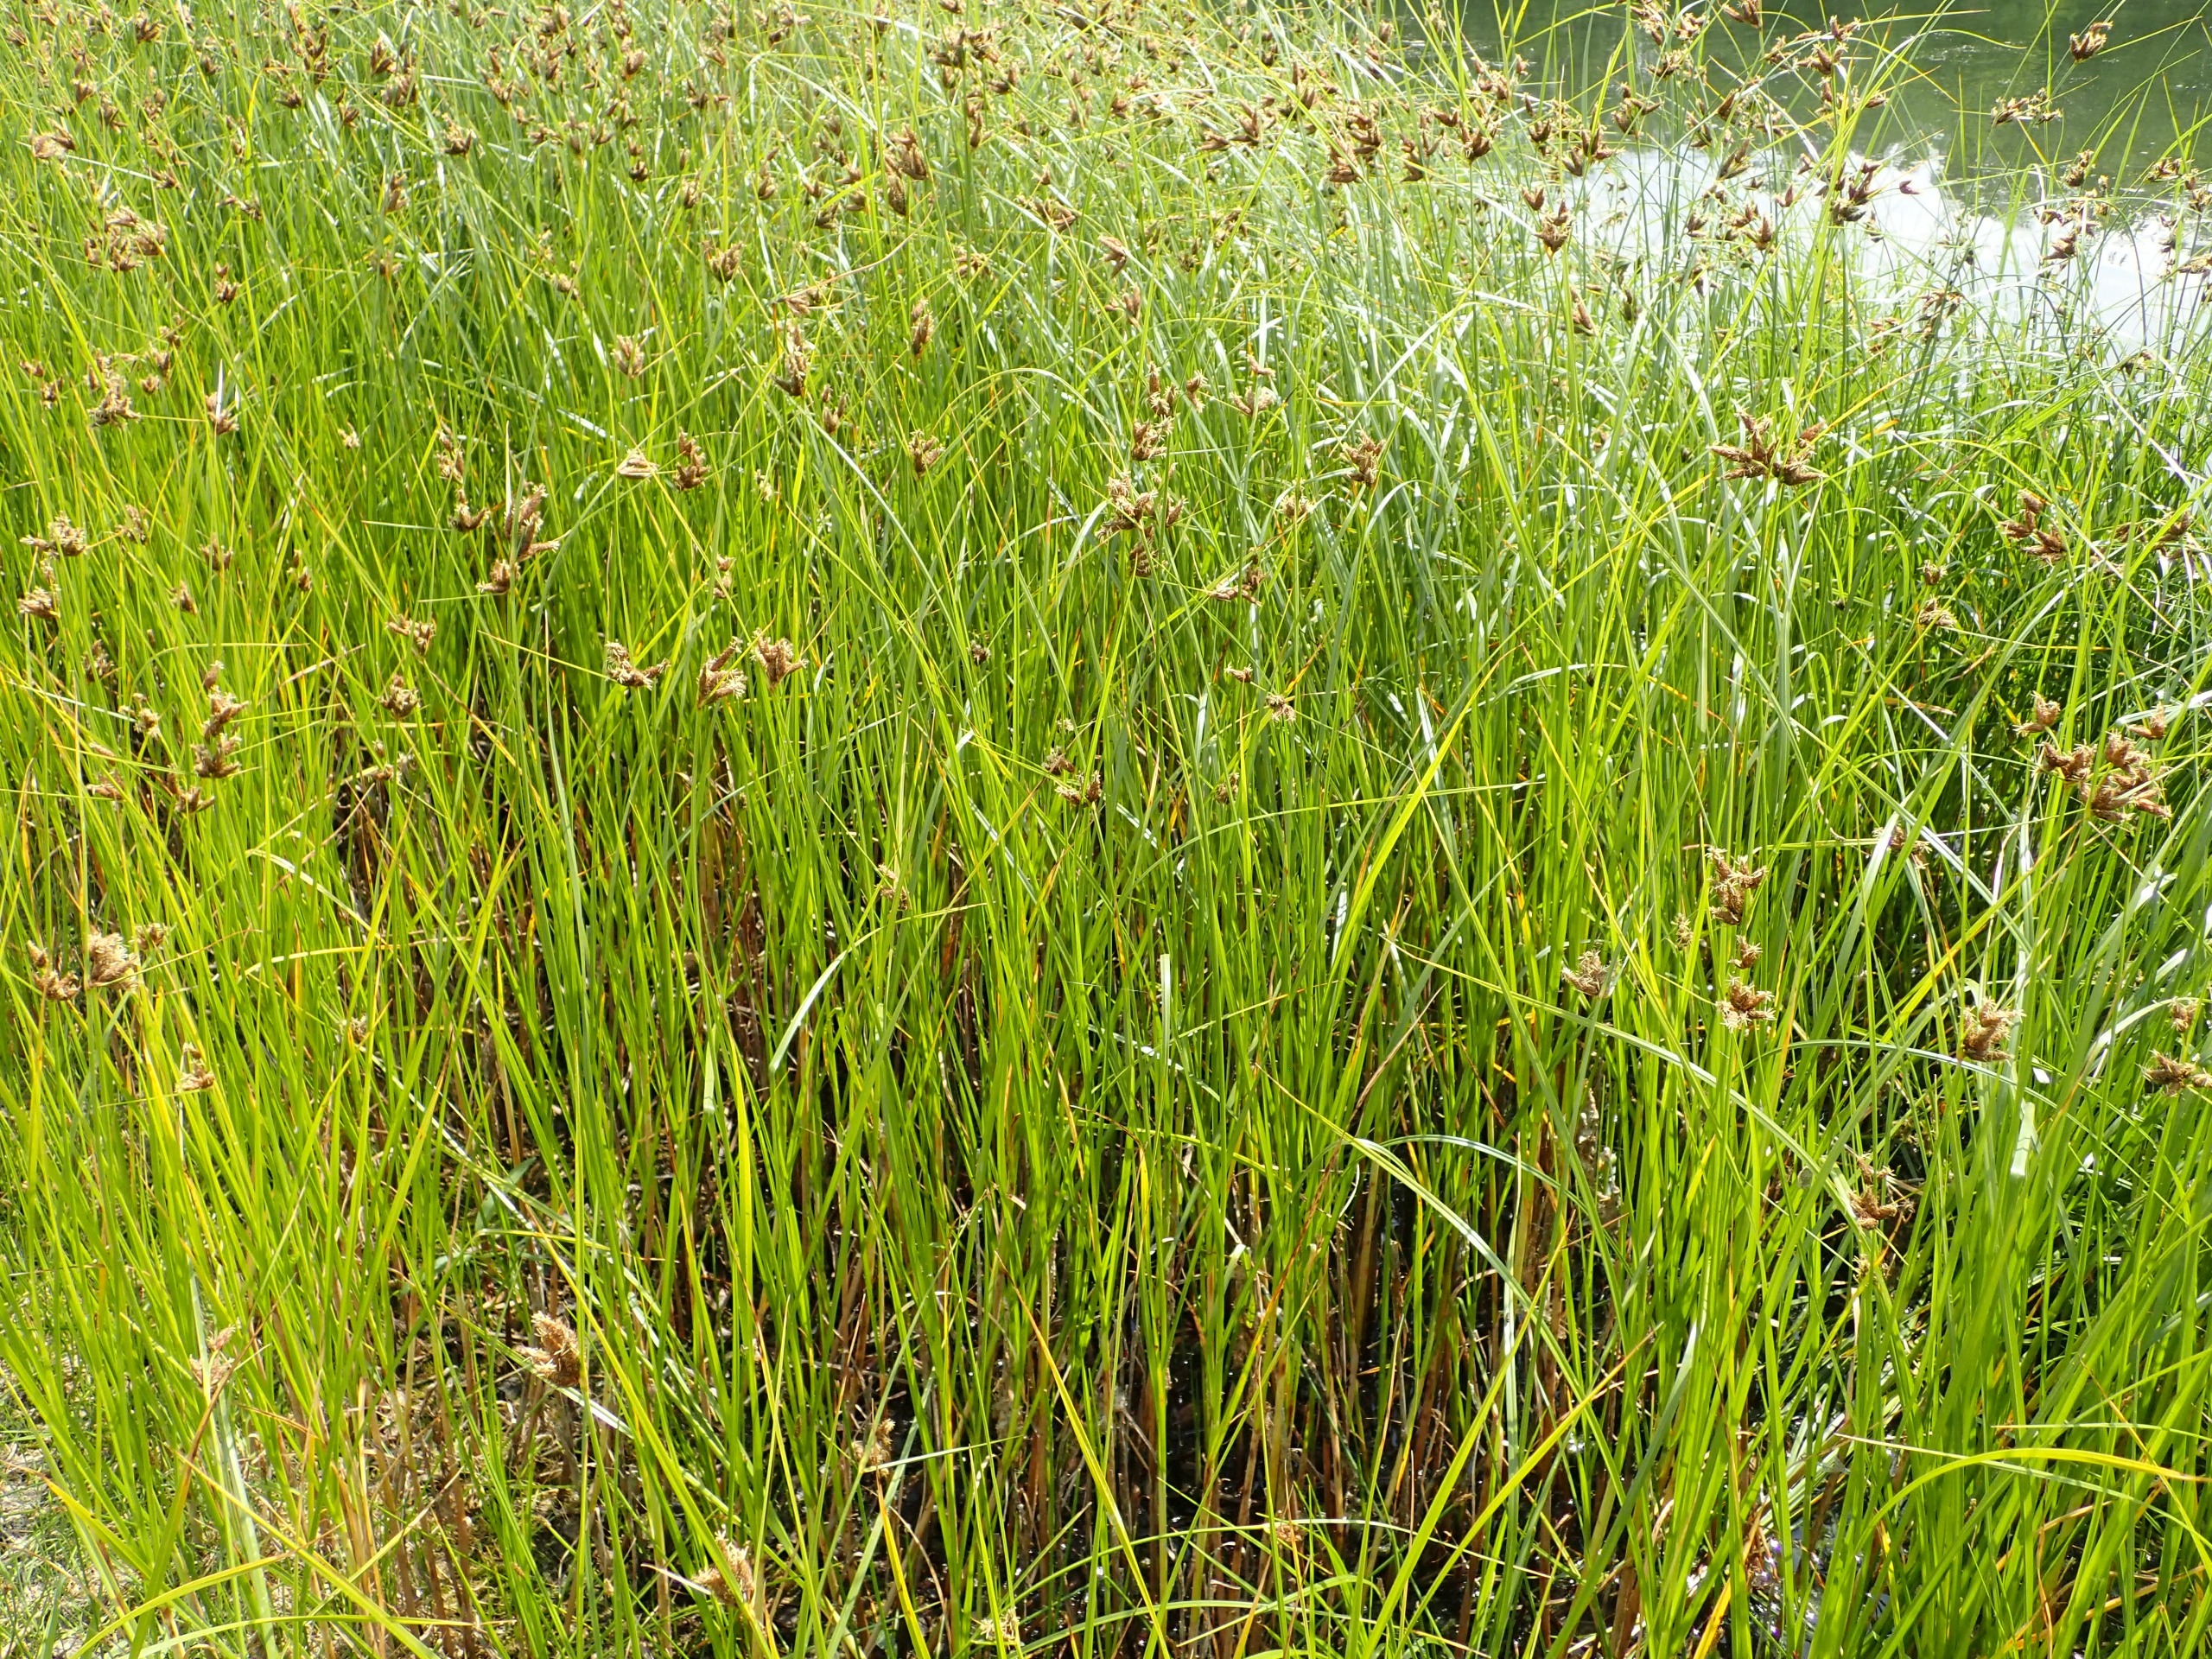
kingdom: Plantae
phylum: Tracheophyta
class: Liliopsida
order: Poales
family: Cyperaceae
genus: Bolboschoenus
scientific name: Bolboschoenus maritimus
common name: Strand-kogleaks
